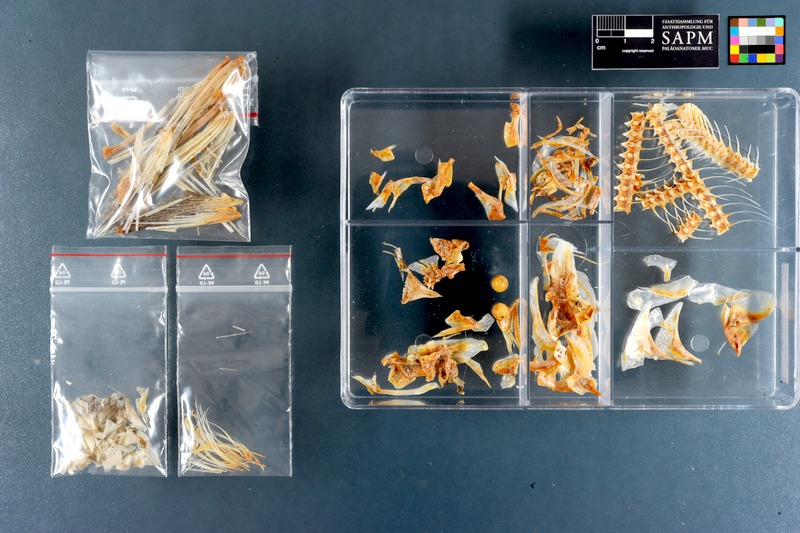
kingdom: Animalia
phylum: Chordata
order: Beloniformes
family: Exocoetidae
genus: Cypselurus
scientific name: Cypselurus oligolepis
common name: Largescale flyingfish
